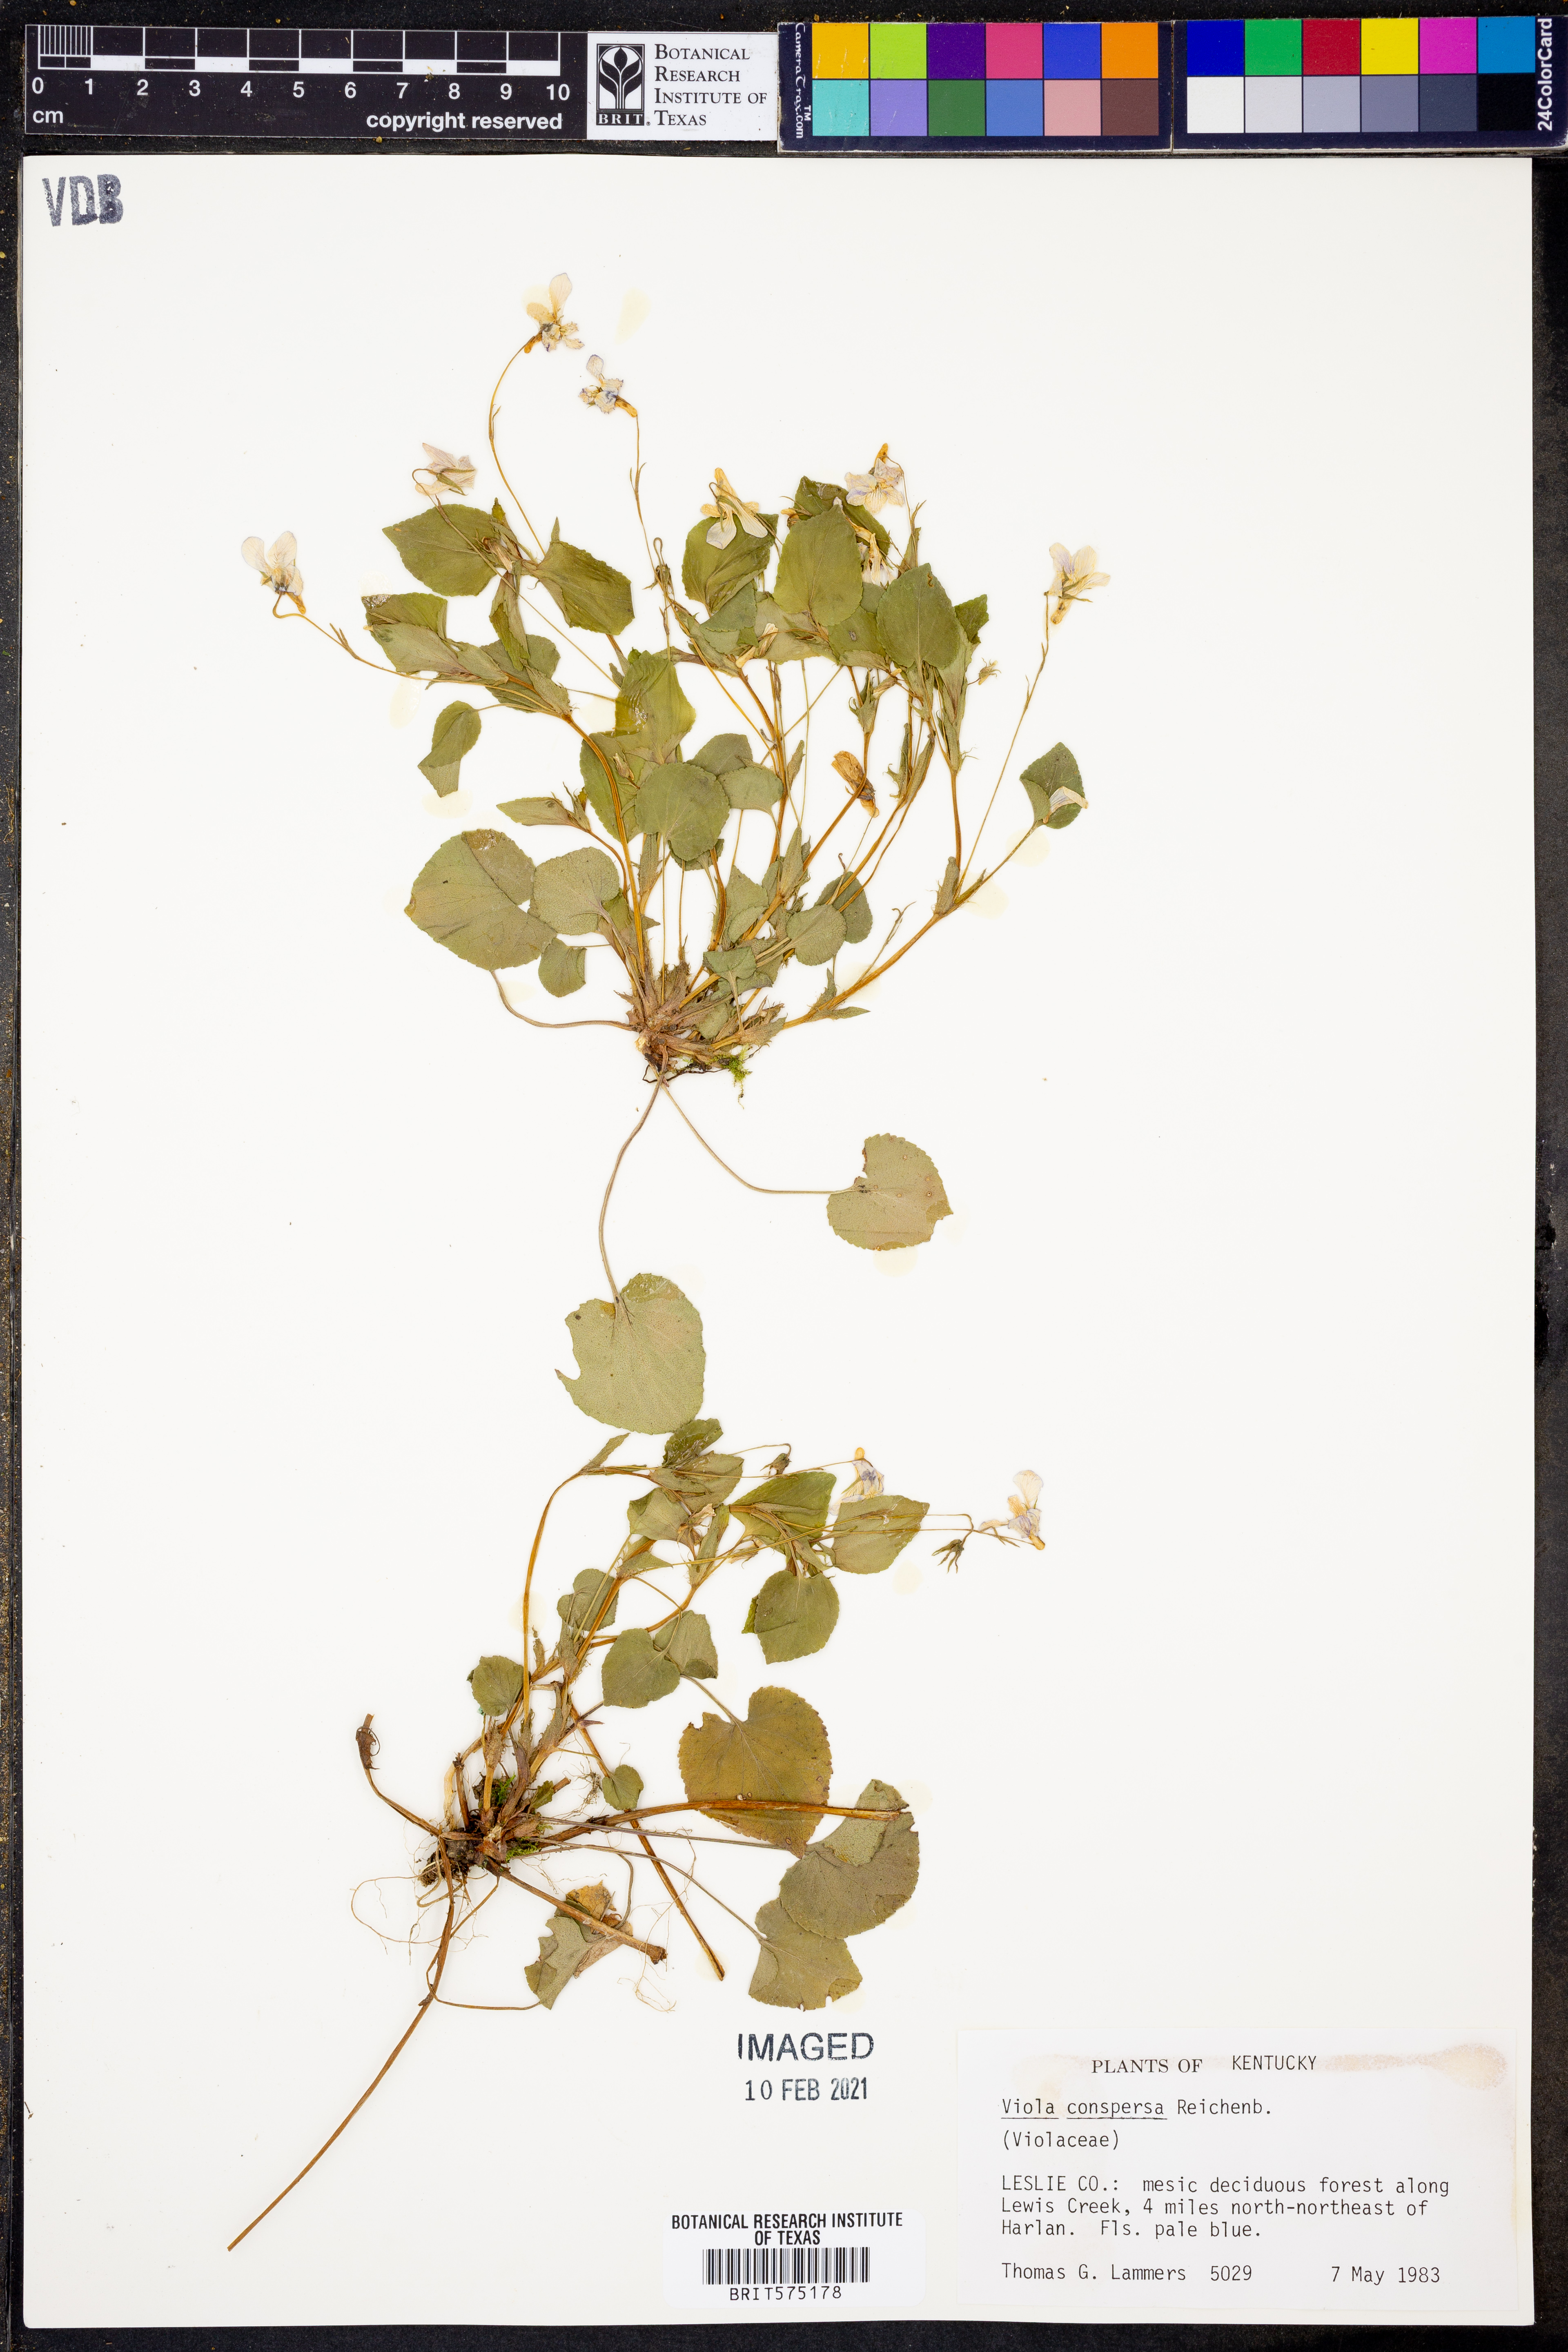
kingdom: Plantae
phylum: Tracheophyta
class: Magnoliopsida
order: Malpighiales
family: Violaceae
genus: Viola
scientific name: Viola labradorica
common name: Labrador violet
